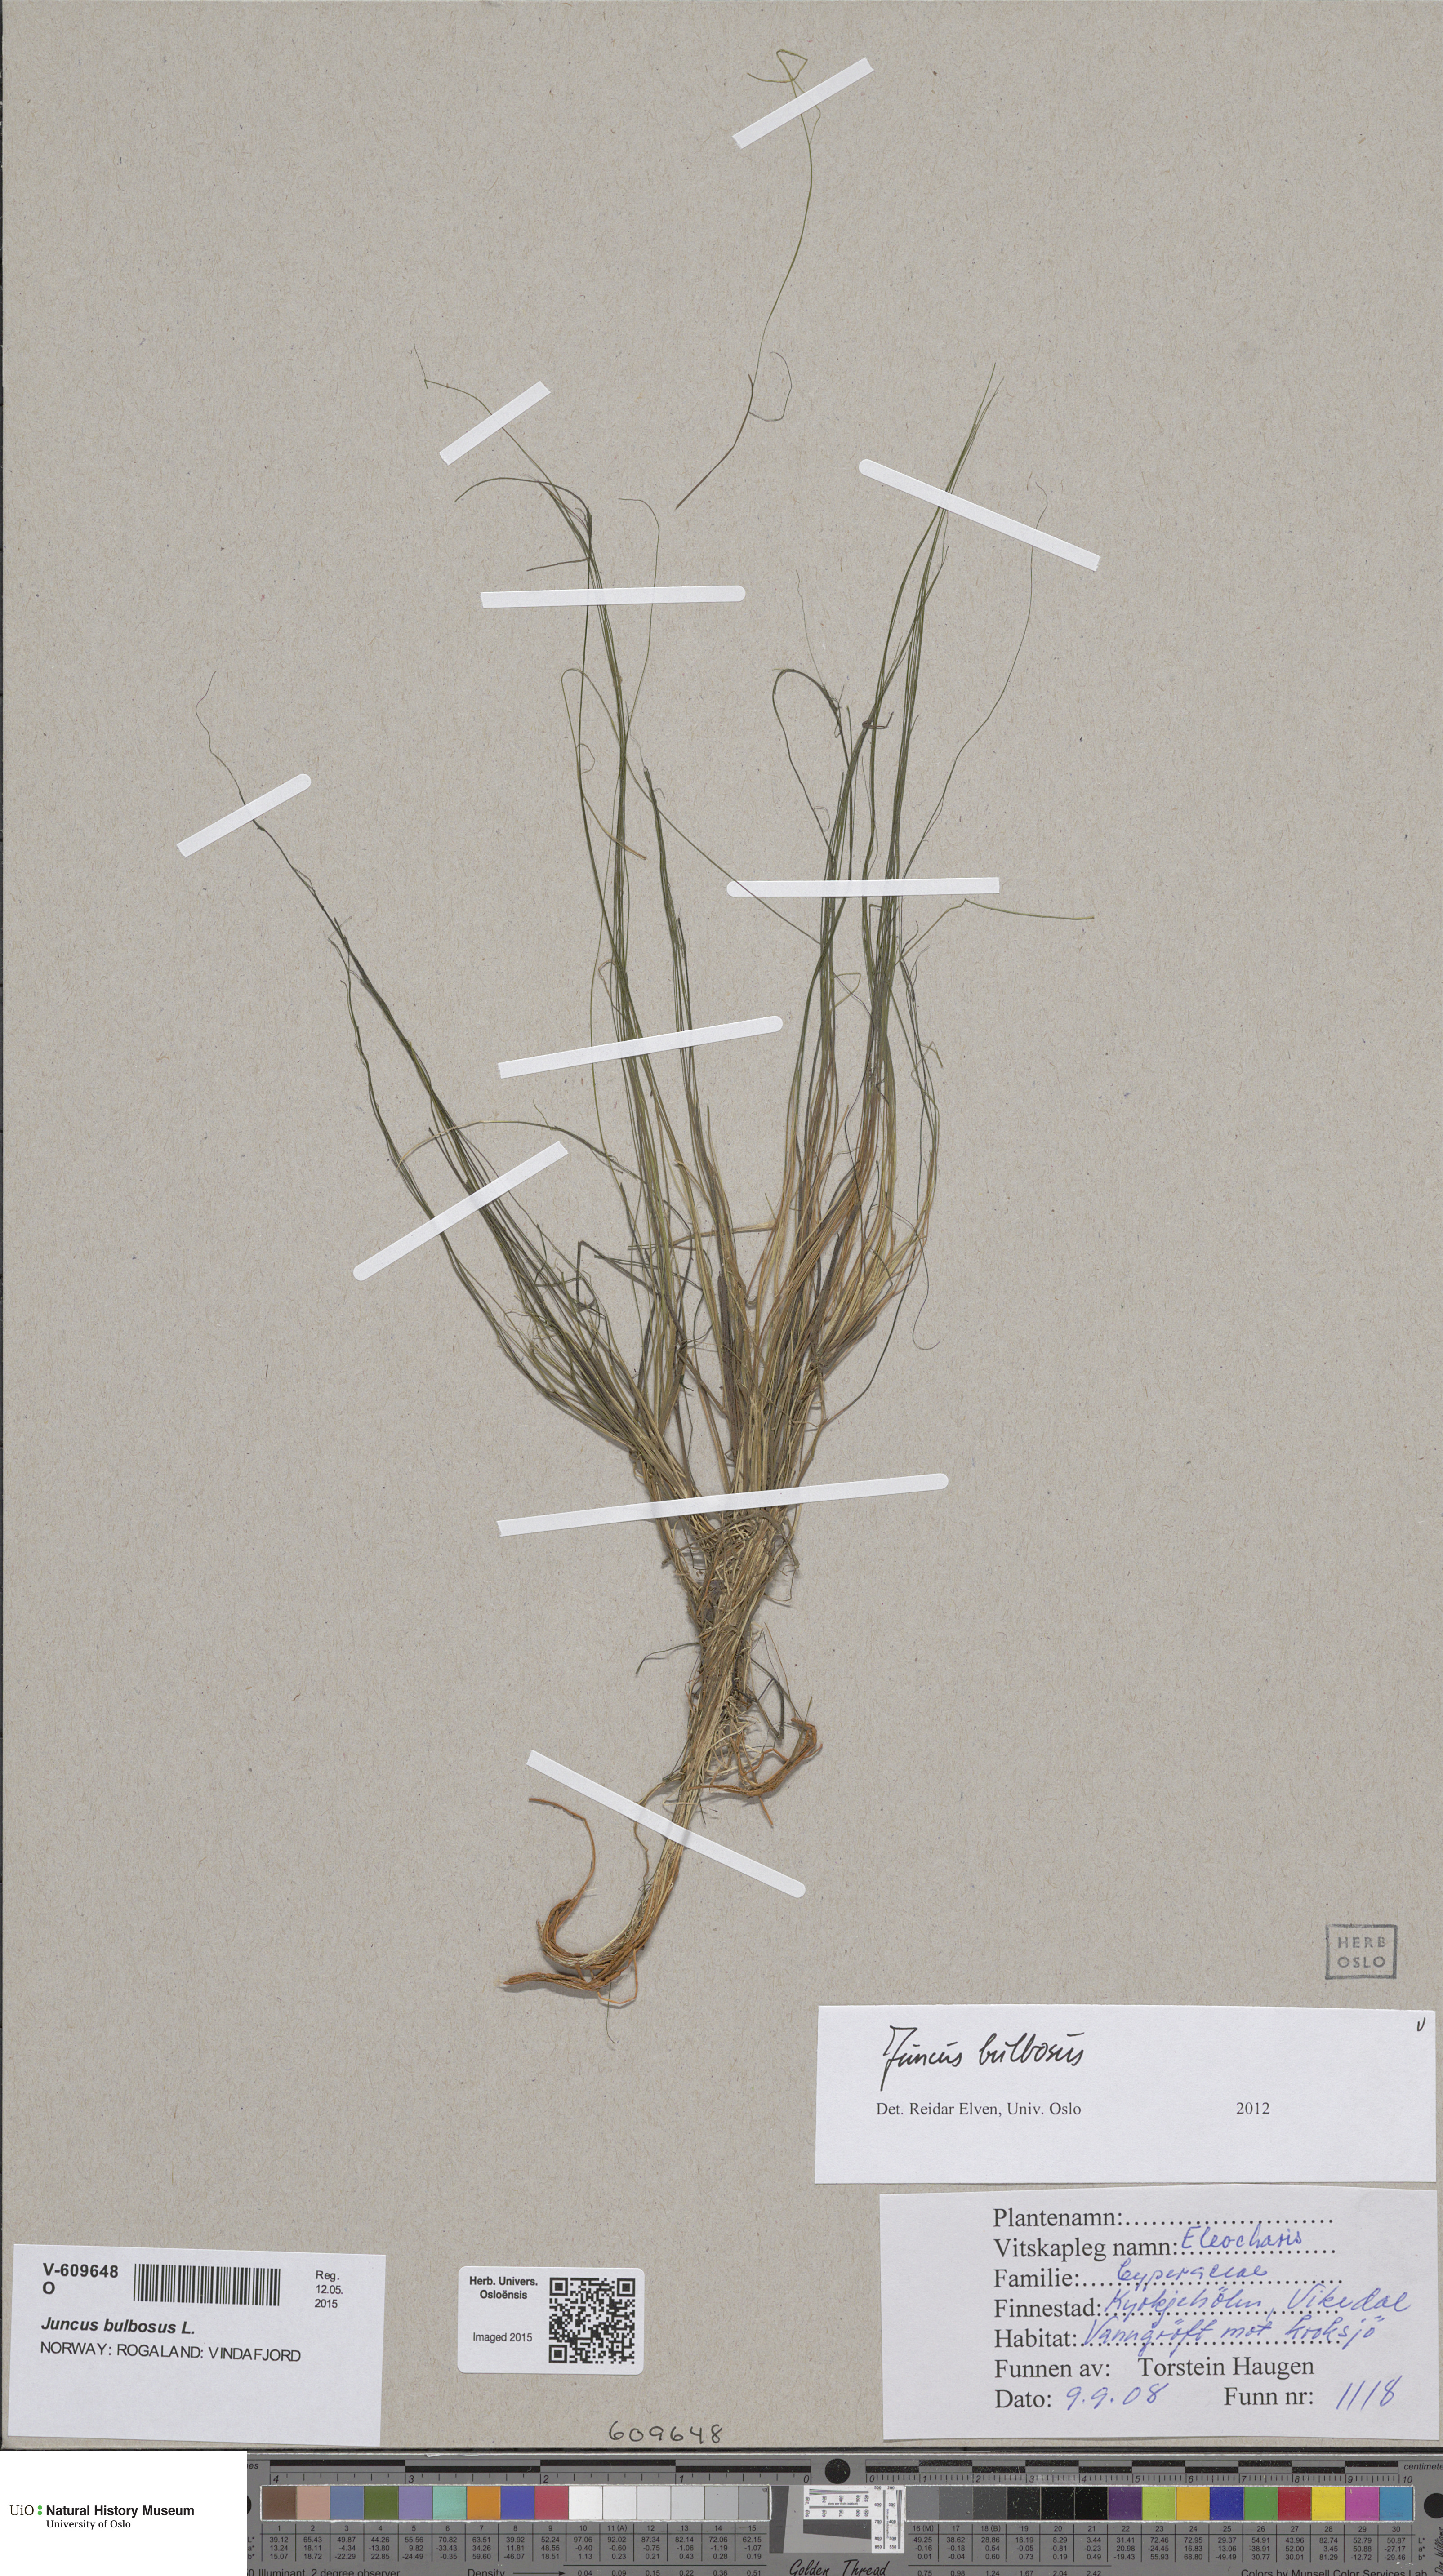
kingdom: Plantae
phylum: Tracheophyta
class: Liliopsida
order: Poales
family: Juncaceae
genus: Juncus
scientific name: Juncus bulbosus
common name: Bulbous rush
